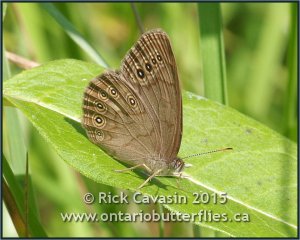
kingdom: Animalia
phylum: Arthropoda
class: Insecta
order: Lepidoptera
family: Nymphalidae
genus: Lethe
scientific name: Lethe eurydice
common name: Eyed Brown
